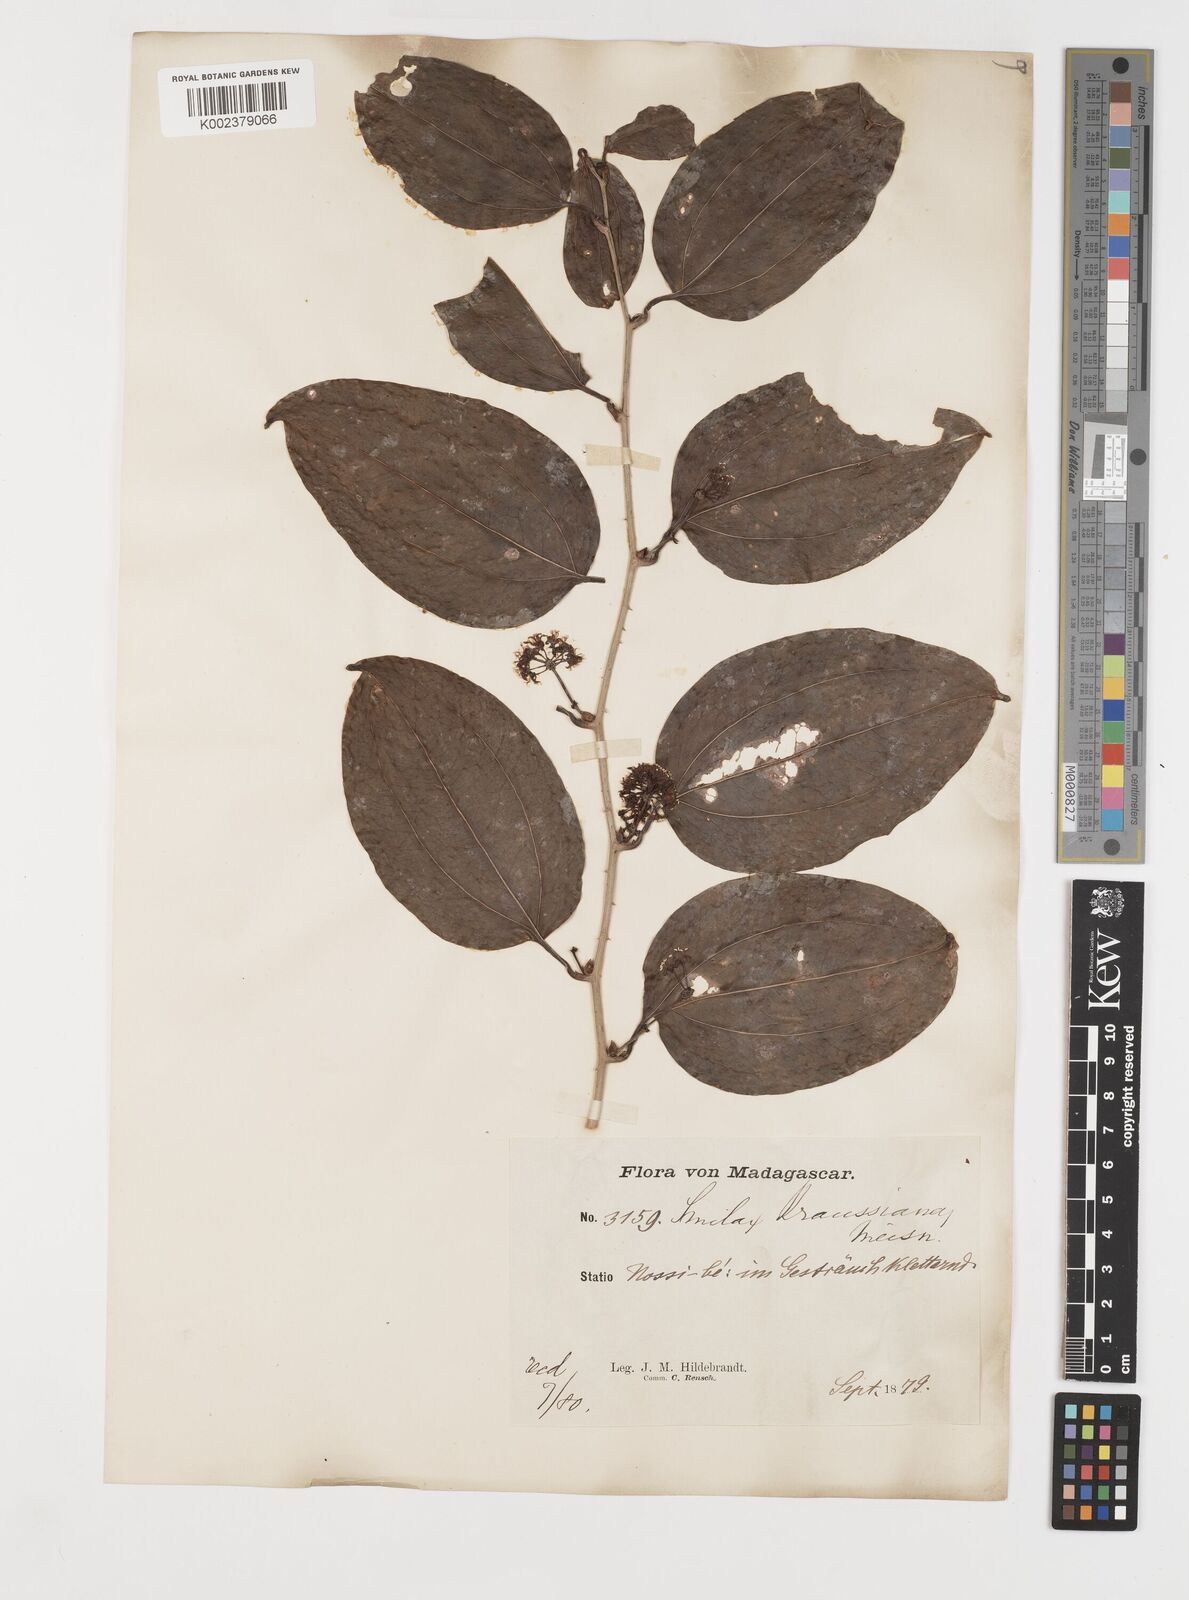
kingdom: Plantae
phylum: Tracheophyta
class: Liliopsida
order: Liliales
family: Smilacaceae
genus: Smilax
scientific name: Smilax anceps
